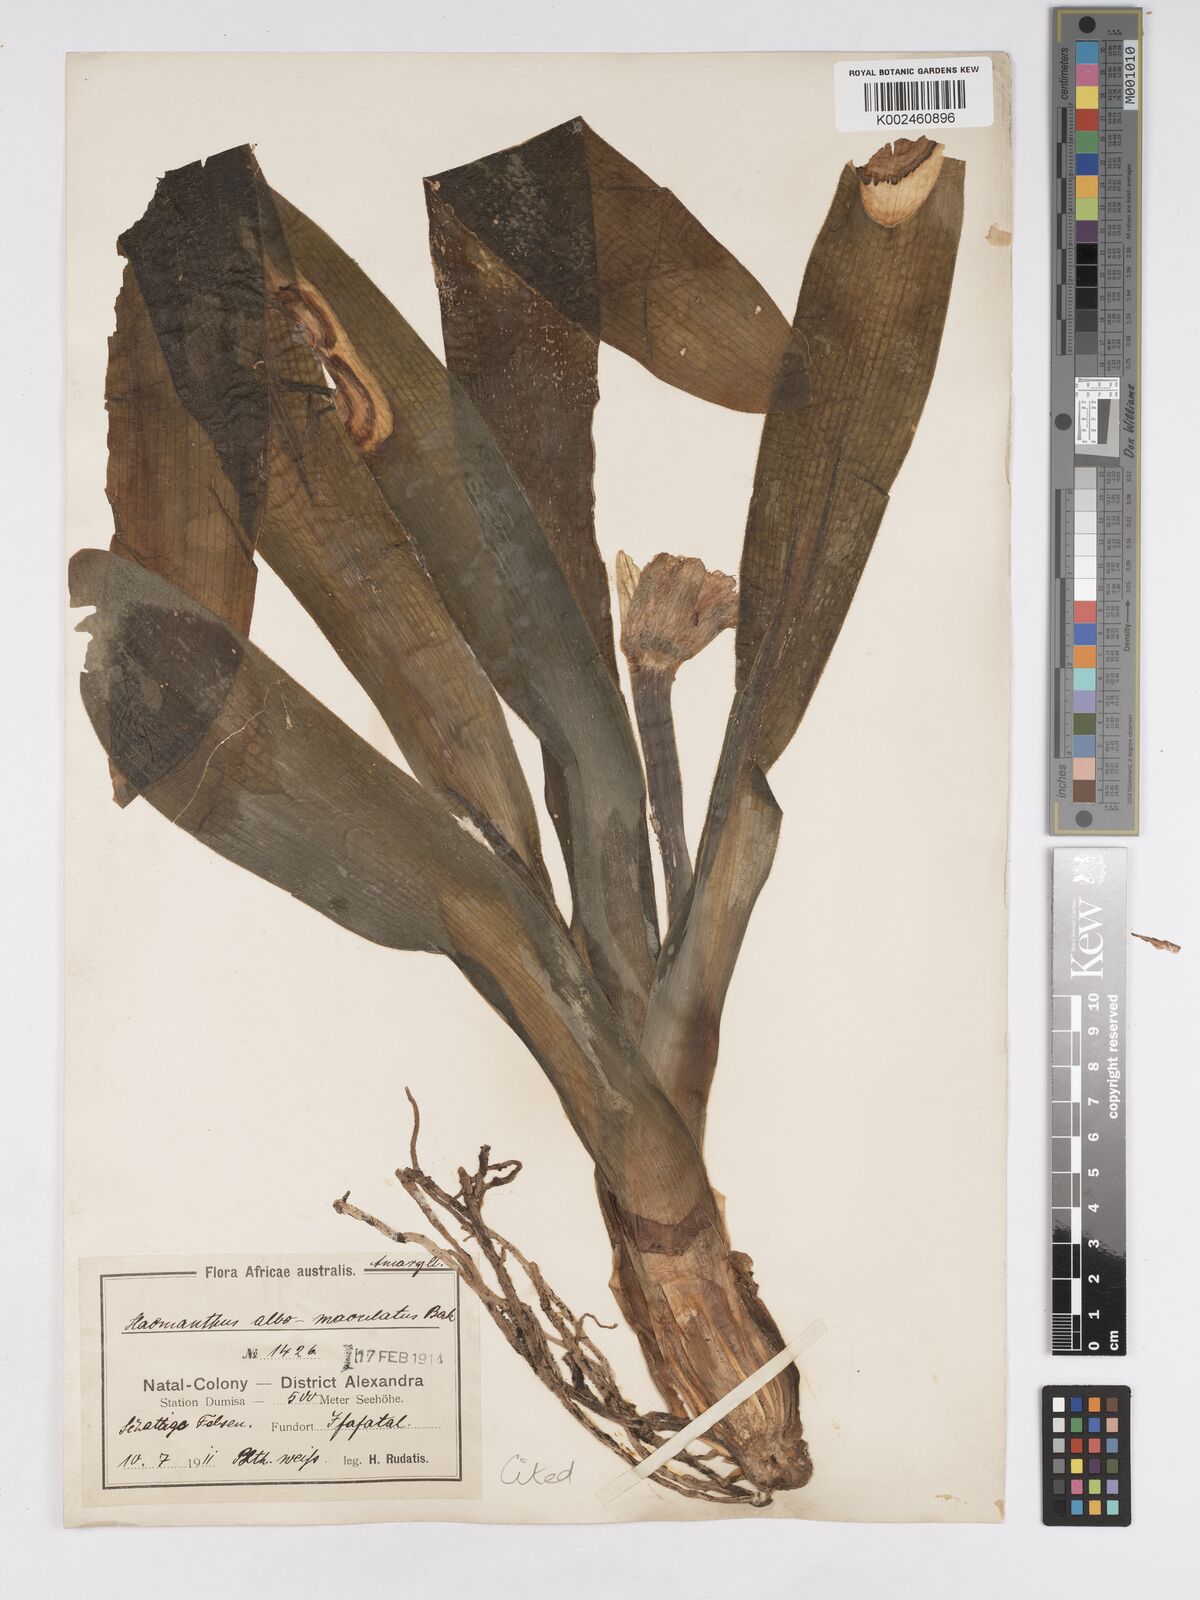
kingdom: Plantae
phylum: Tracheophyta
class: Liliopsida
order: Asparagales
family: Amaryllidaceae
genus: Haemanthus
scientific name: Haemanthus albiflos
